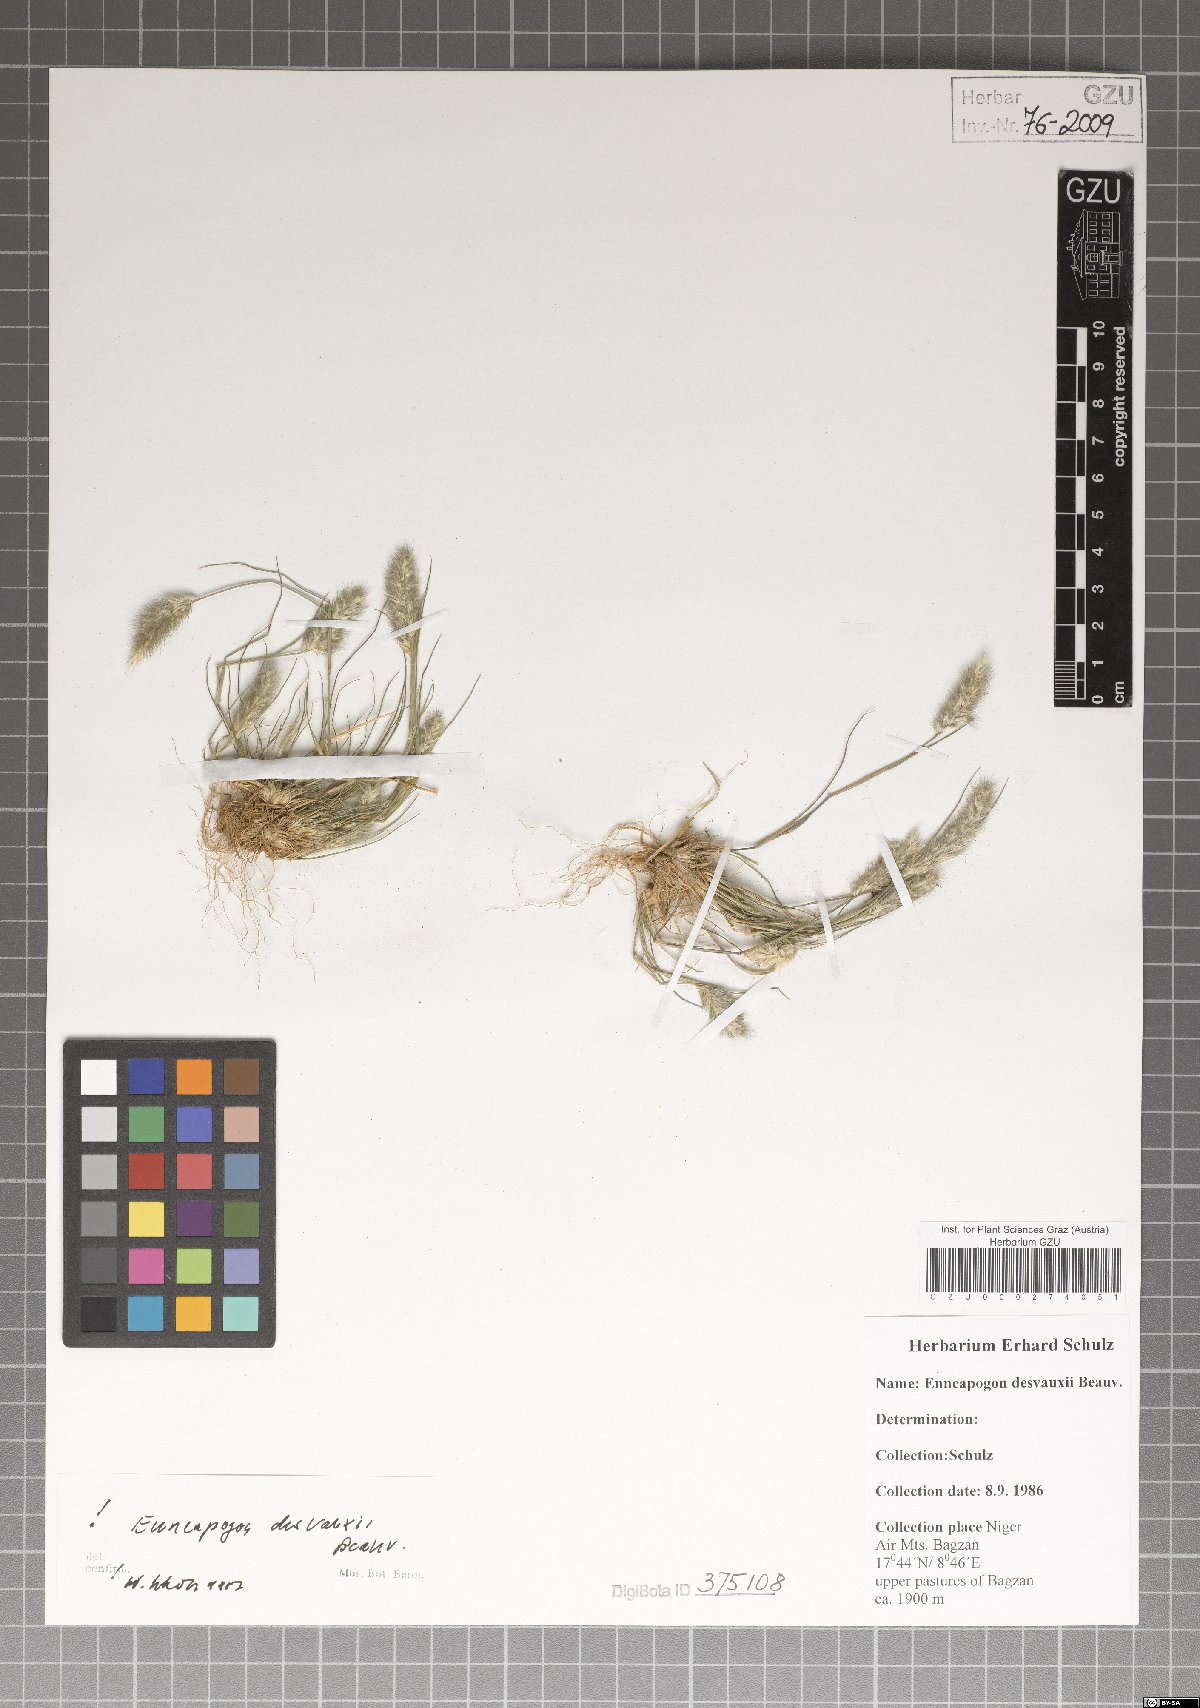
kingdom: Plantae
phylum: Tracheophyta
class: Liliopsida
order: Poales
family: Poaceae
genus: Enneapogon
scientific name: Enneapogon desvauxii
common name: Feather pappus grass
